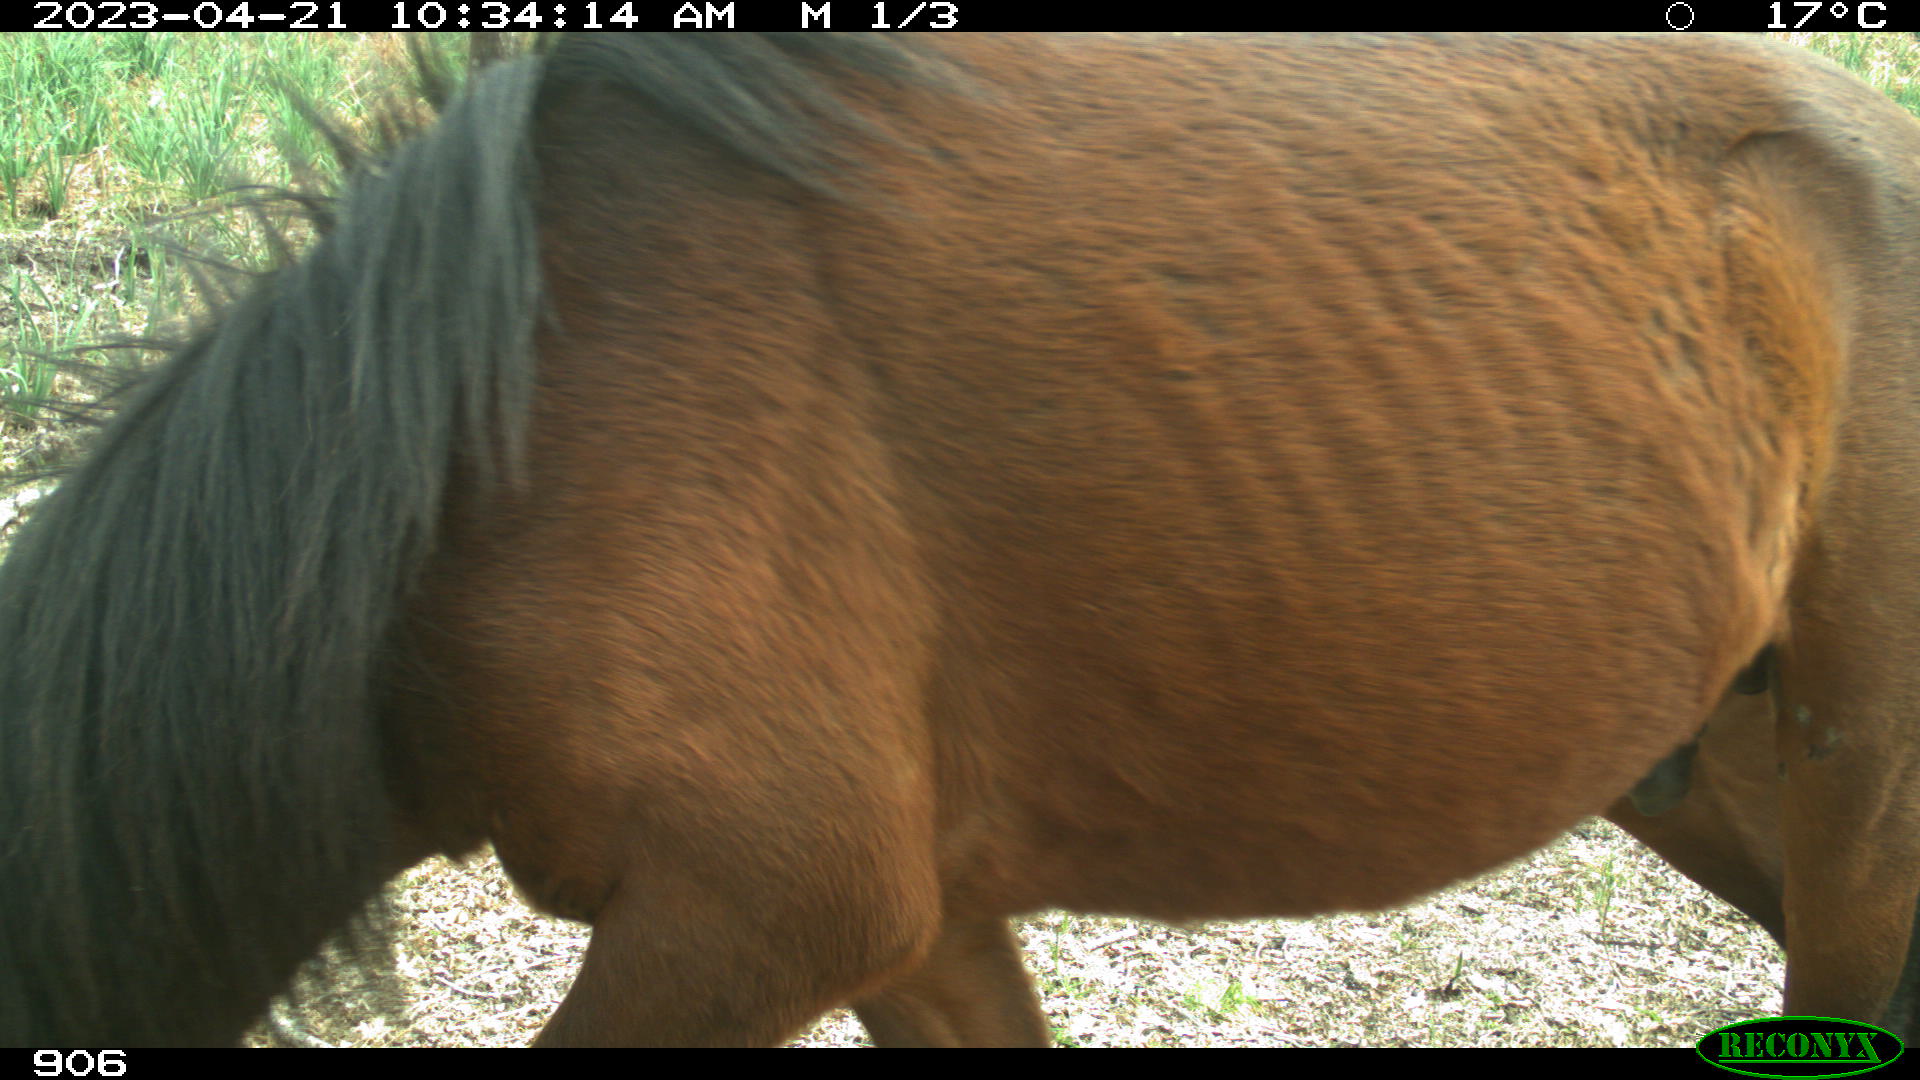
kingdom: Animalia
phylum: Chordata
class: Mammalia
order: Perissodactyla
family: Equidae
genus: Equus
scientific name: Equus caballus
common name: Horse
